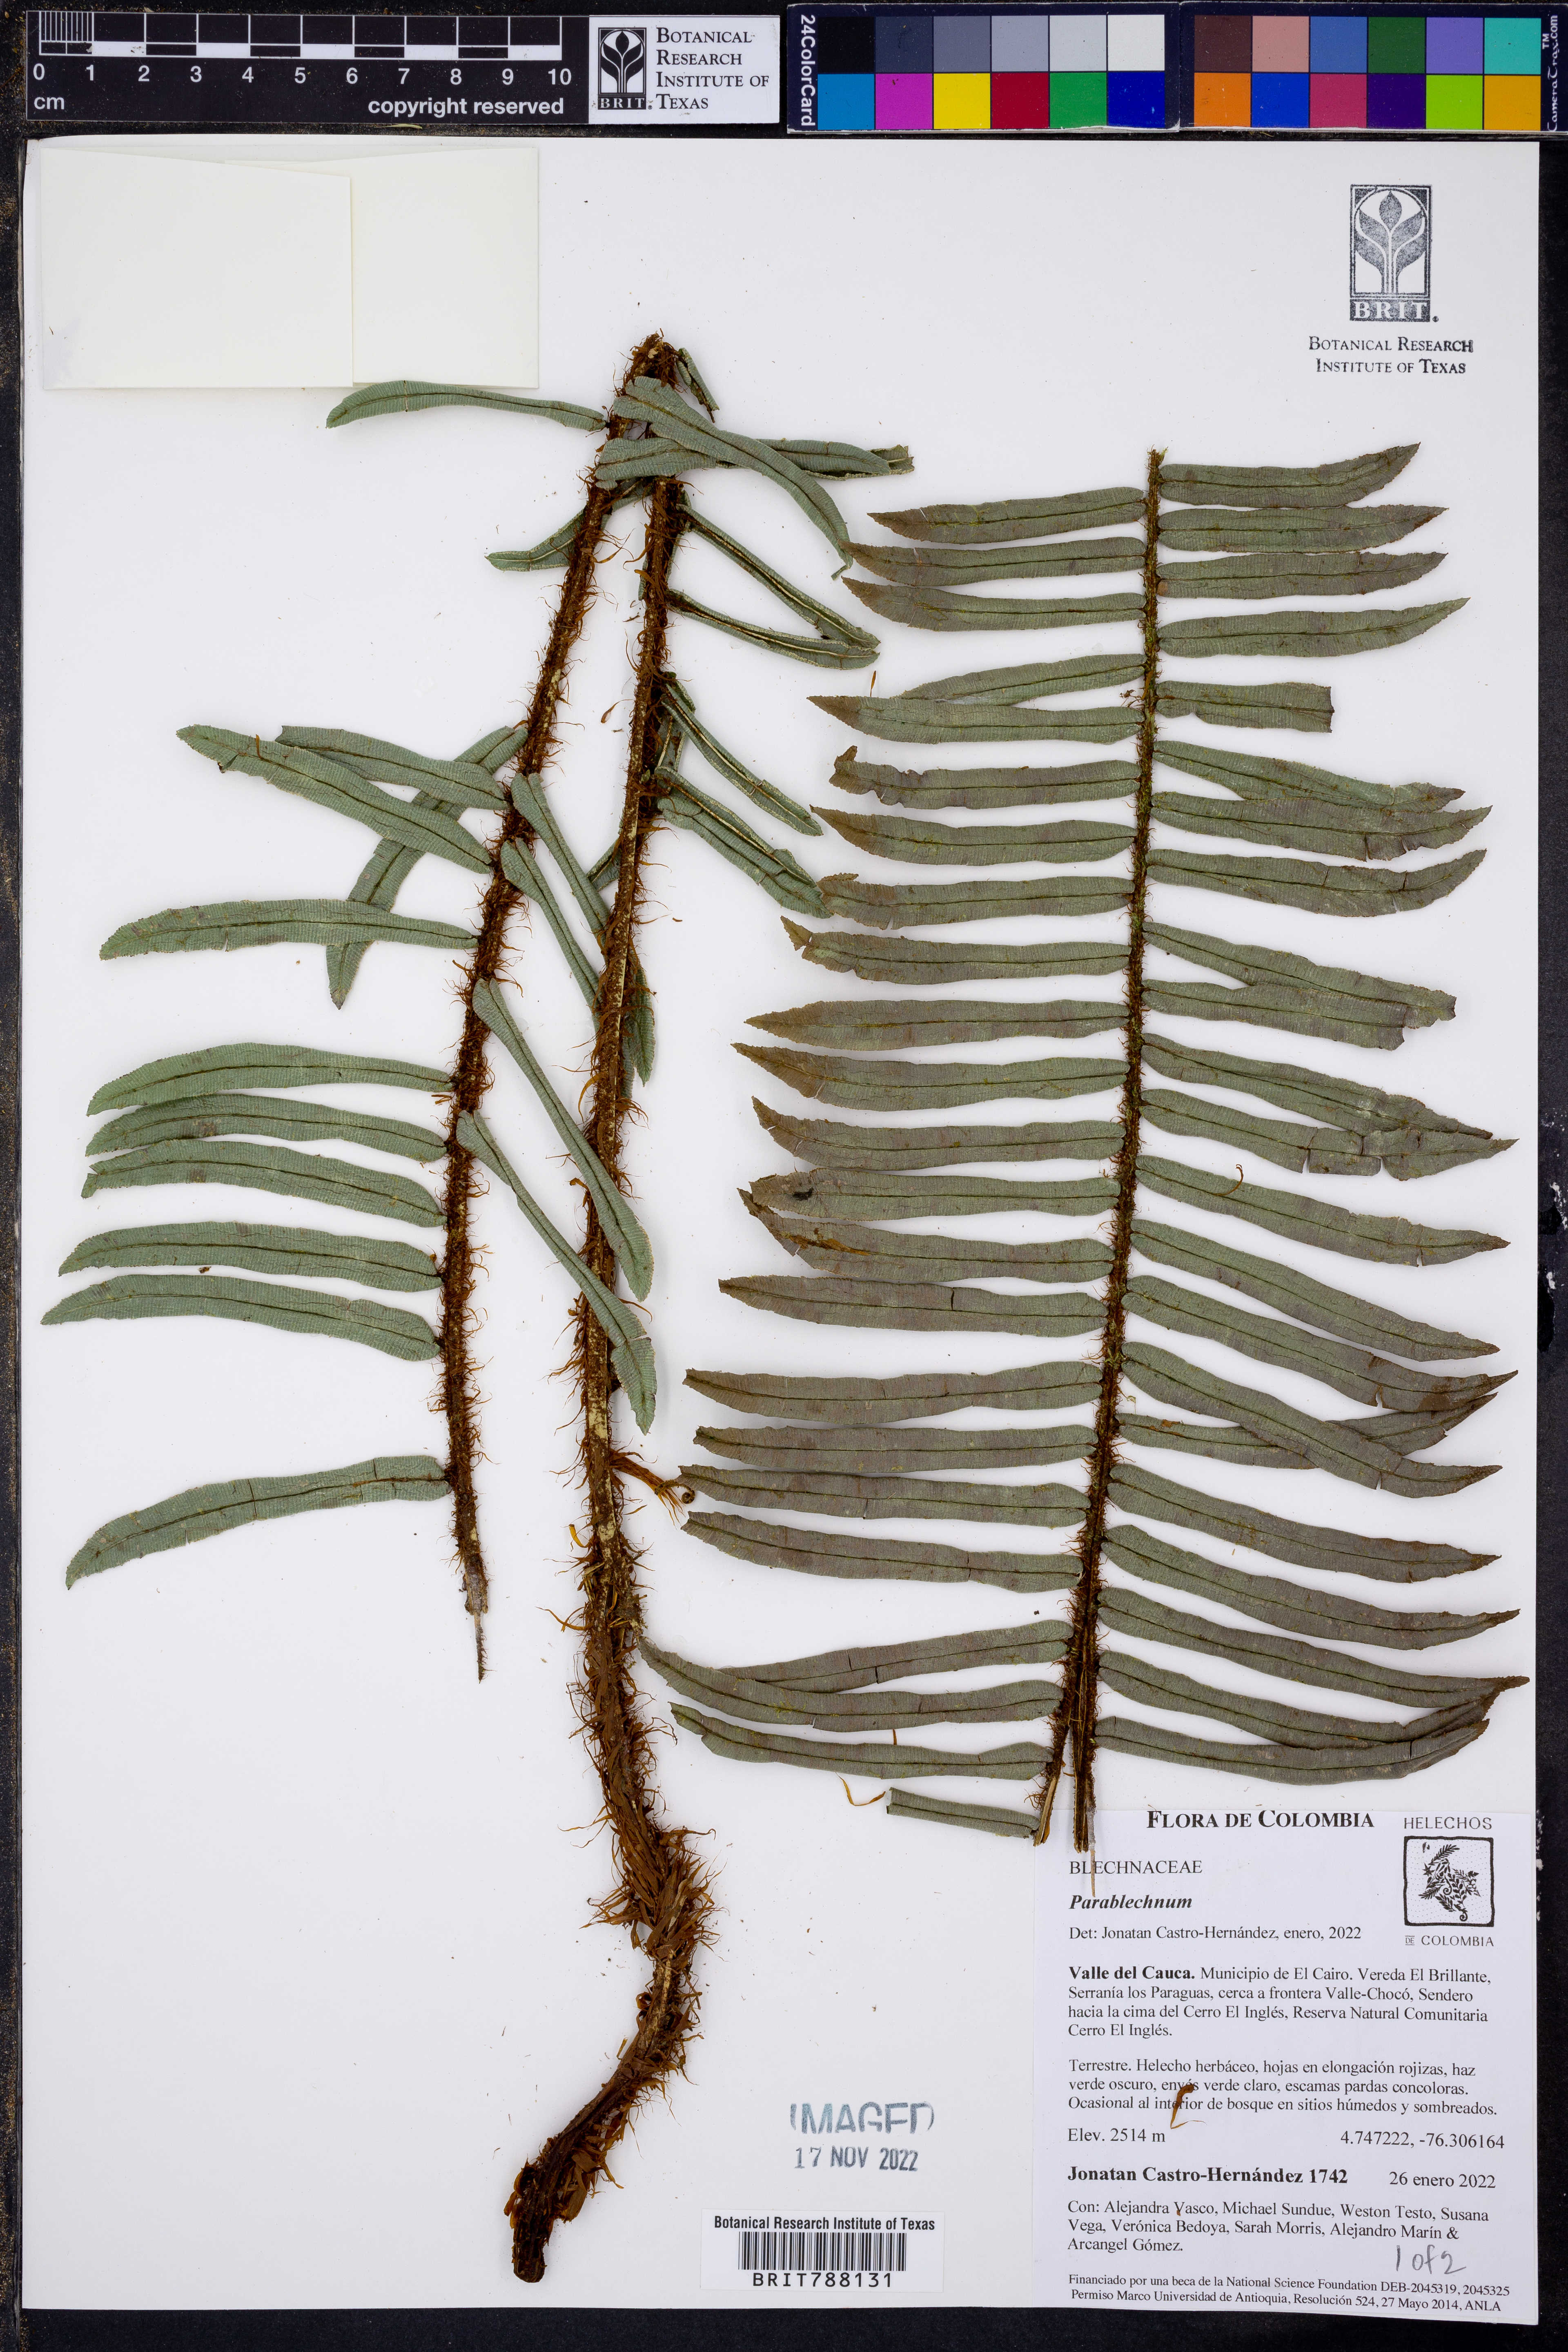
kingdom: Plantae
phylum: Tracheophyta
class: Polypodiopsida
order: Polypodiales
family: Blechnaceae
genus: Parablechnum
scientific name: Parablechnum stipitellatum
